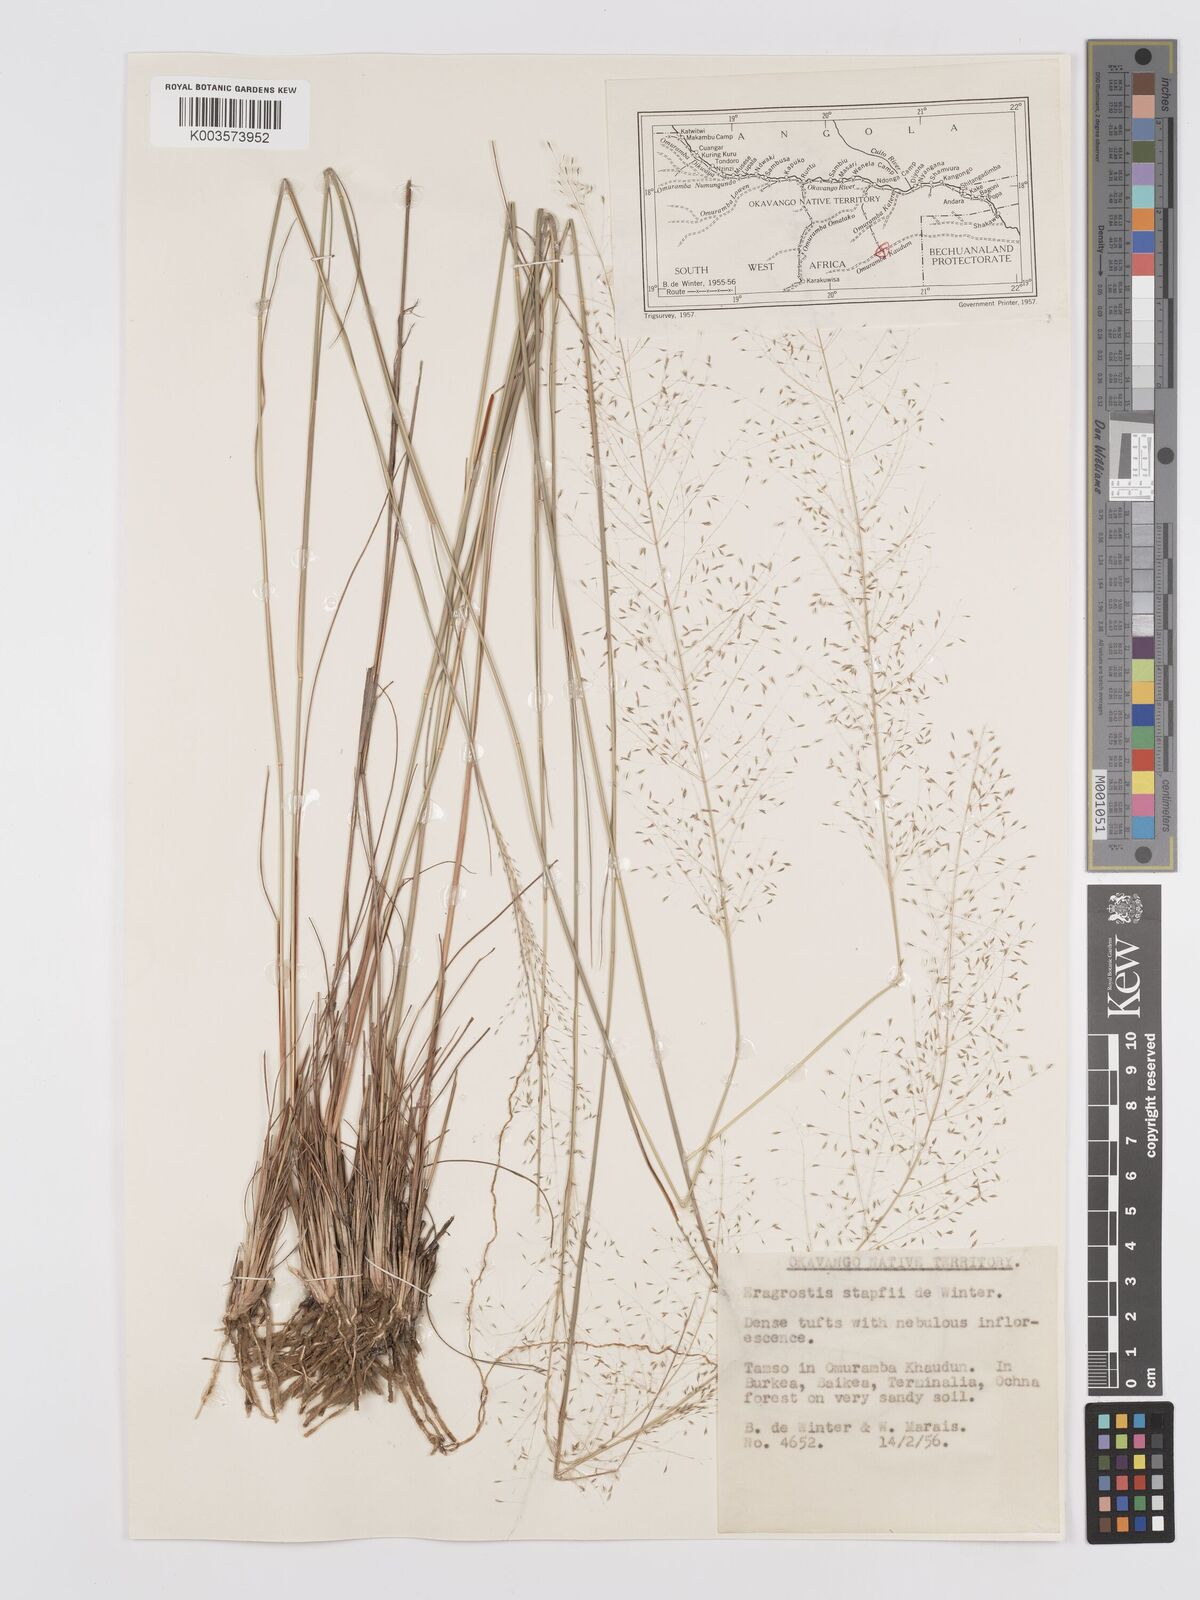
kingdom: Plantae
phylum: Tracheophyta
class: Liliopsida
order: Poales
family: Poaceae
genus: Eragrostis
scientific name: Eragrostis stapfii
